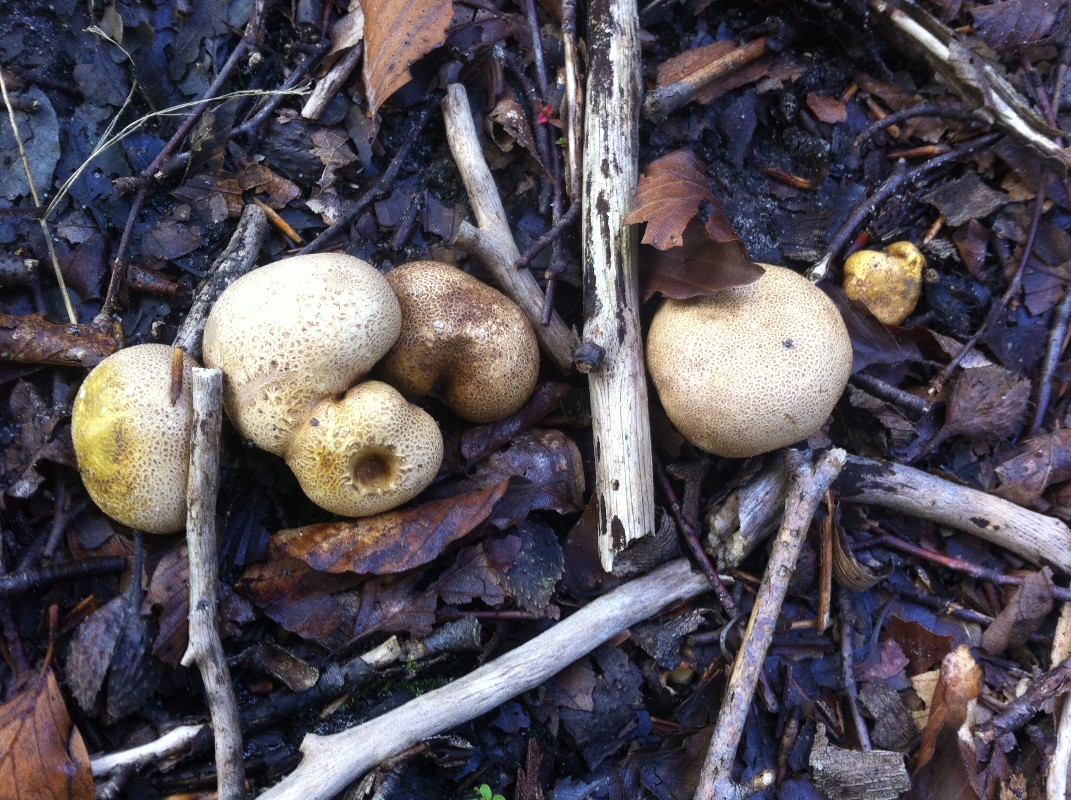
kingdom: Fungi
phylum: Basidiomycota
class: Agaricomycetes
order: Boletales
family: Sclerodermataceae
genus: Scleroderma
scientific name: Scleroderma citrinum
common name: almindelig bruskbold
